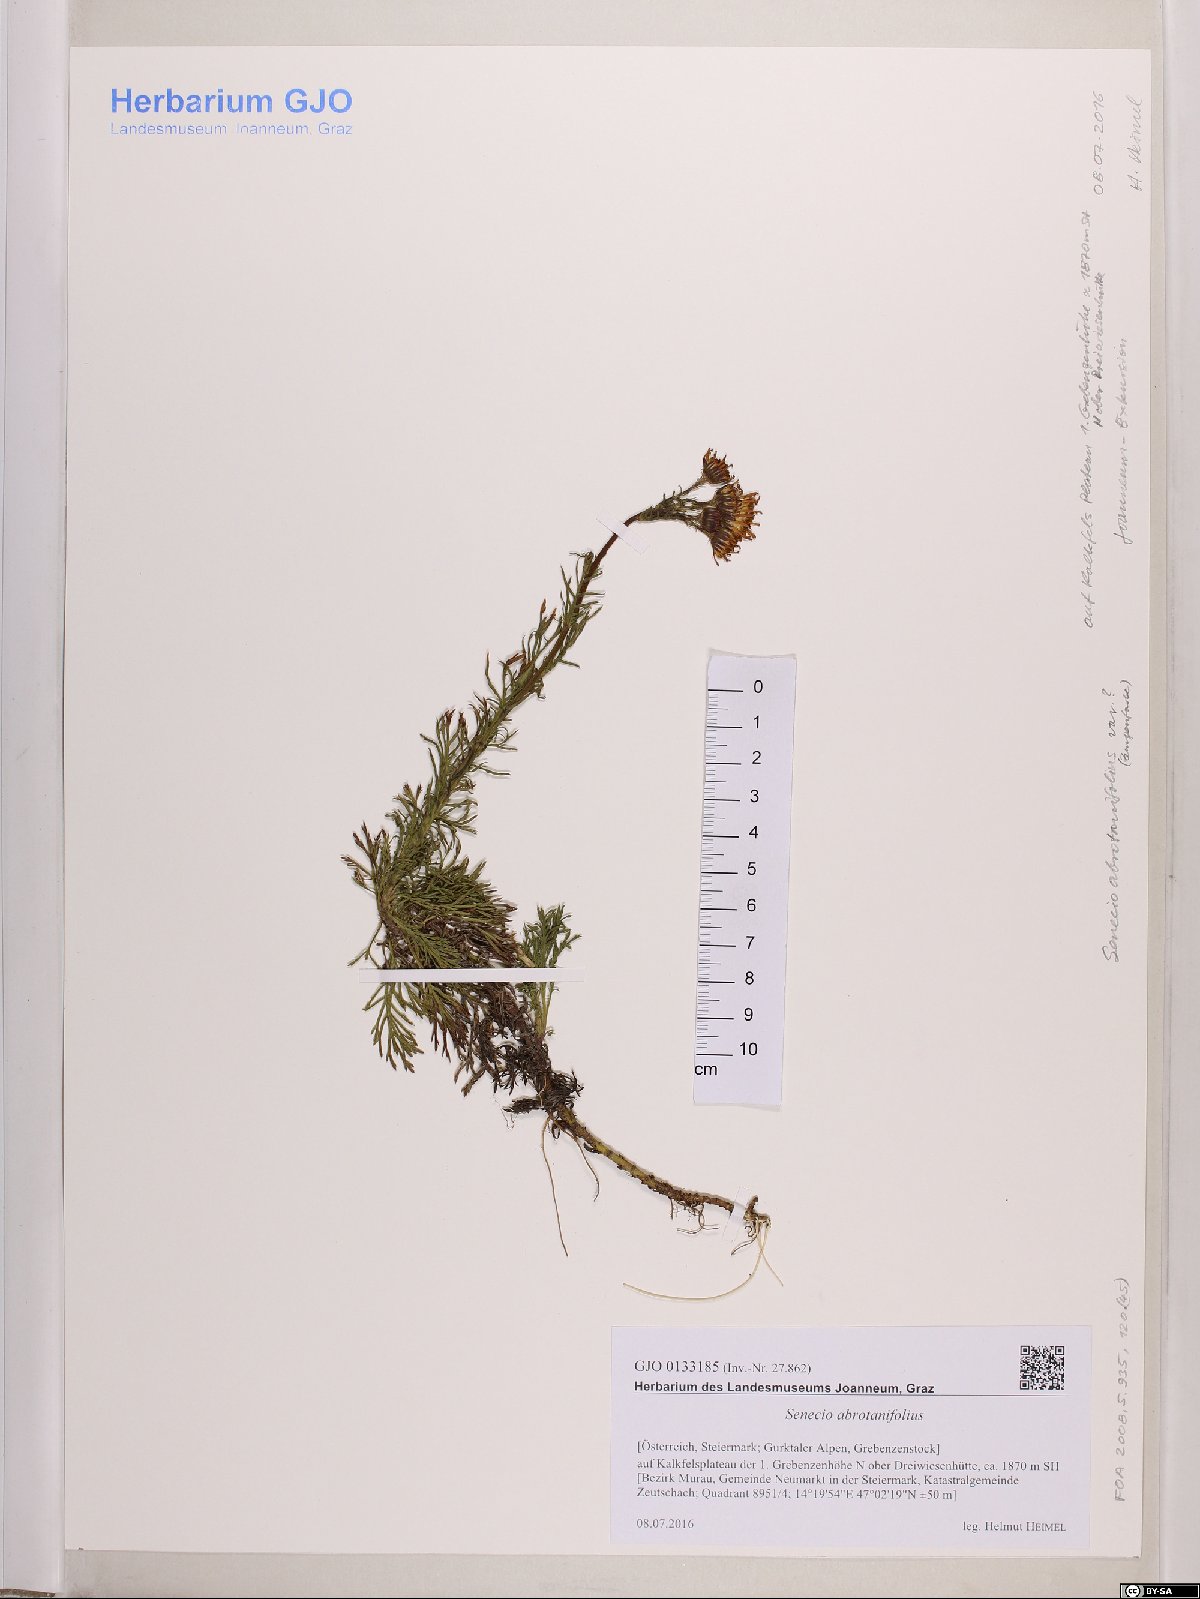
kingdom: Plantae
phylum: Tracheophyta
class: Magnoliopsida
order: Asterales
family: Asteraceae
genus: Jacobaea
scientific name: Jacobaea abrotanifolia
